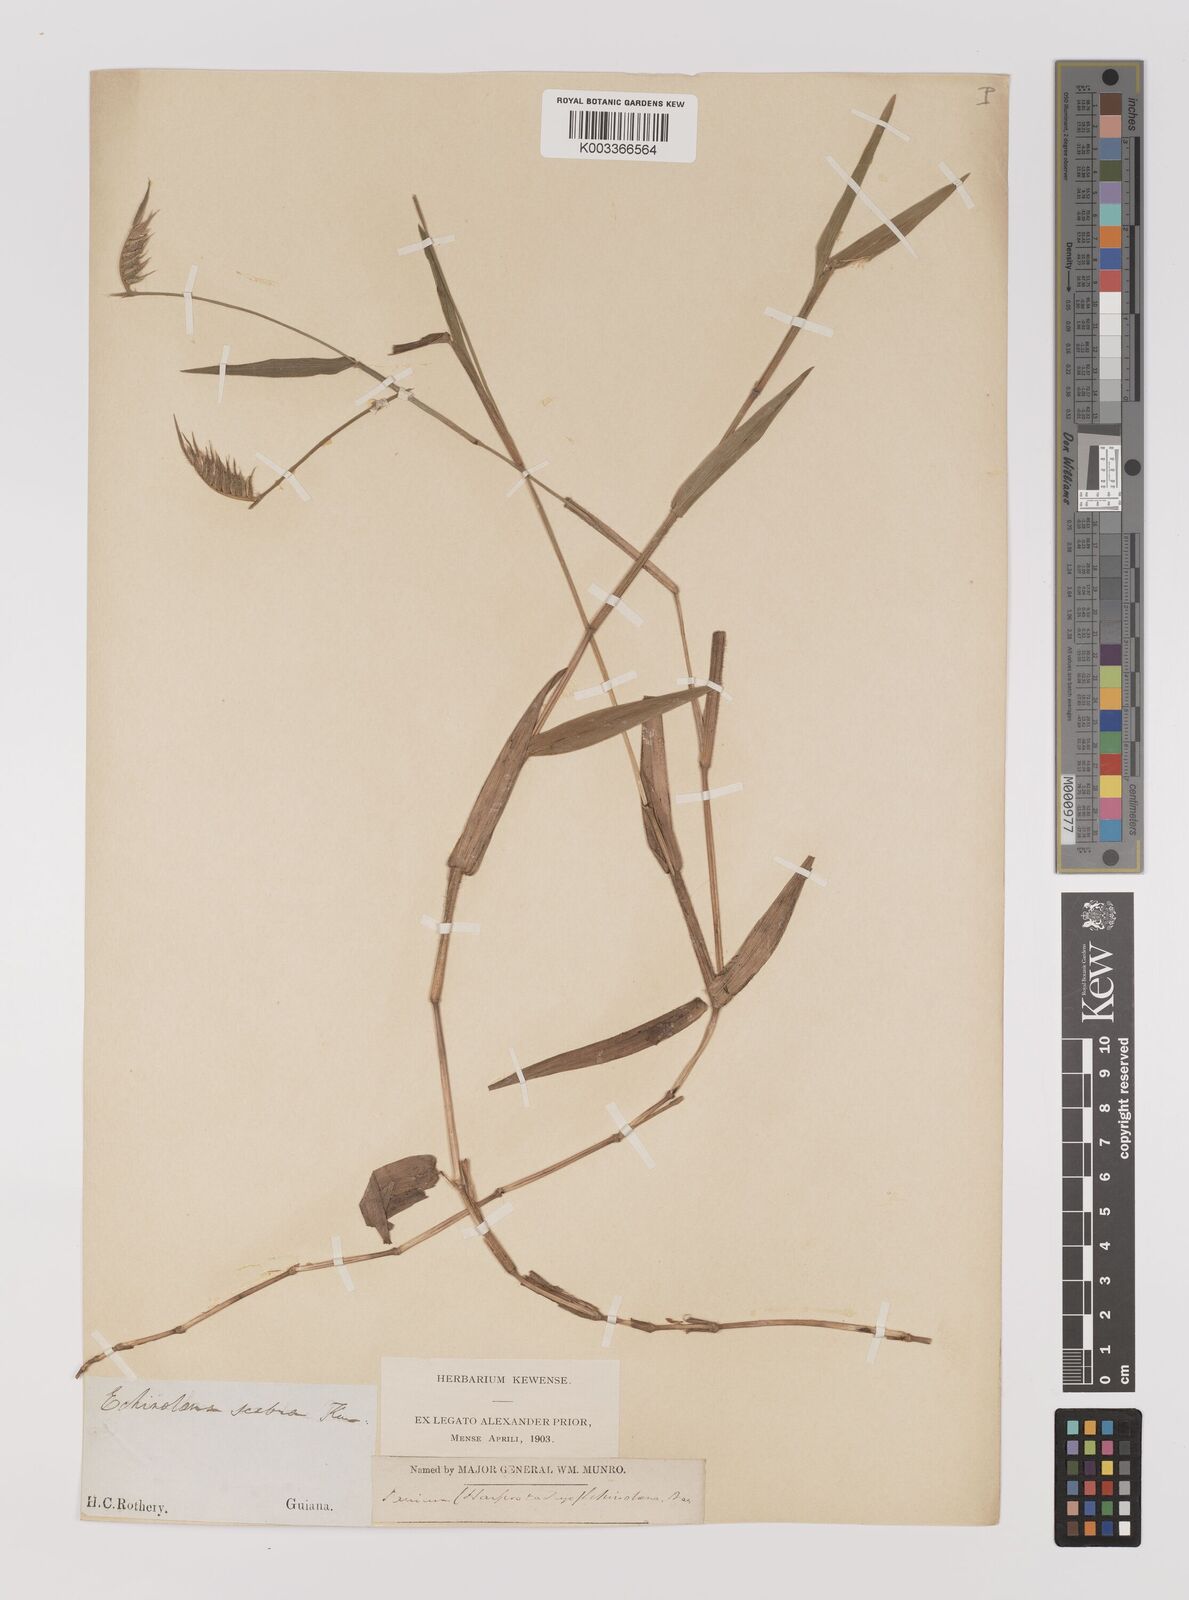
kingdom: Plantae
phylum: Tracheophyta
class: Liliopsida
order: Poales
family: Poaceae
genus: Echinolaena
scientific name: Echinolaena inflexa
